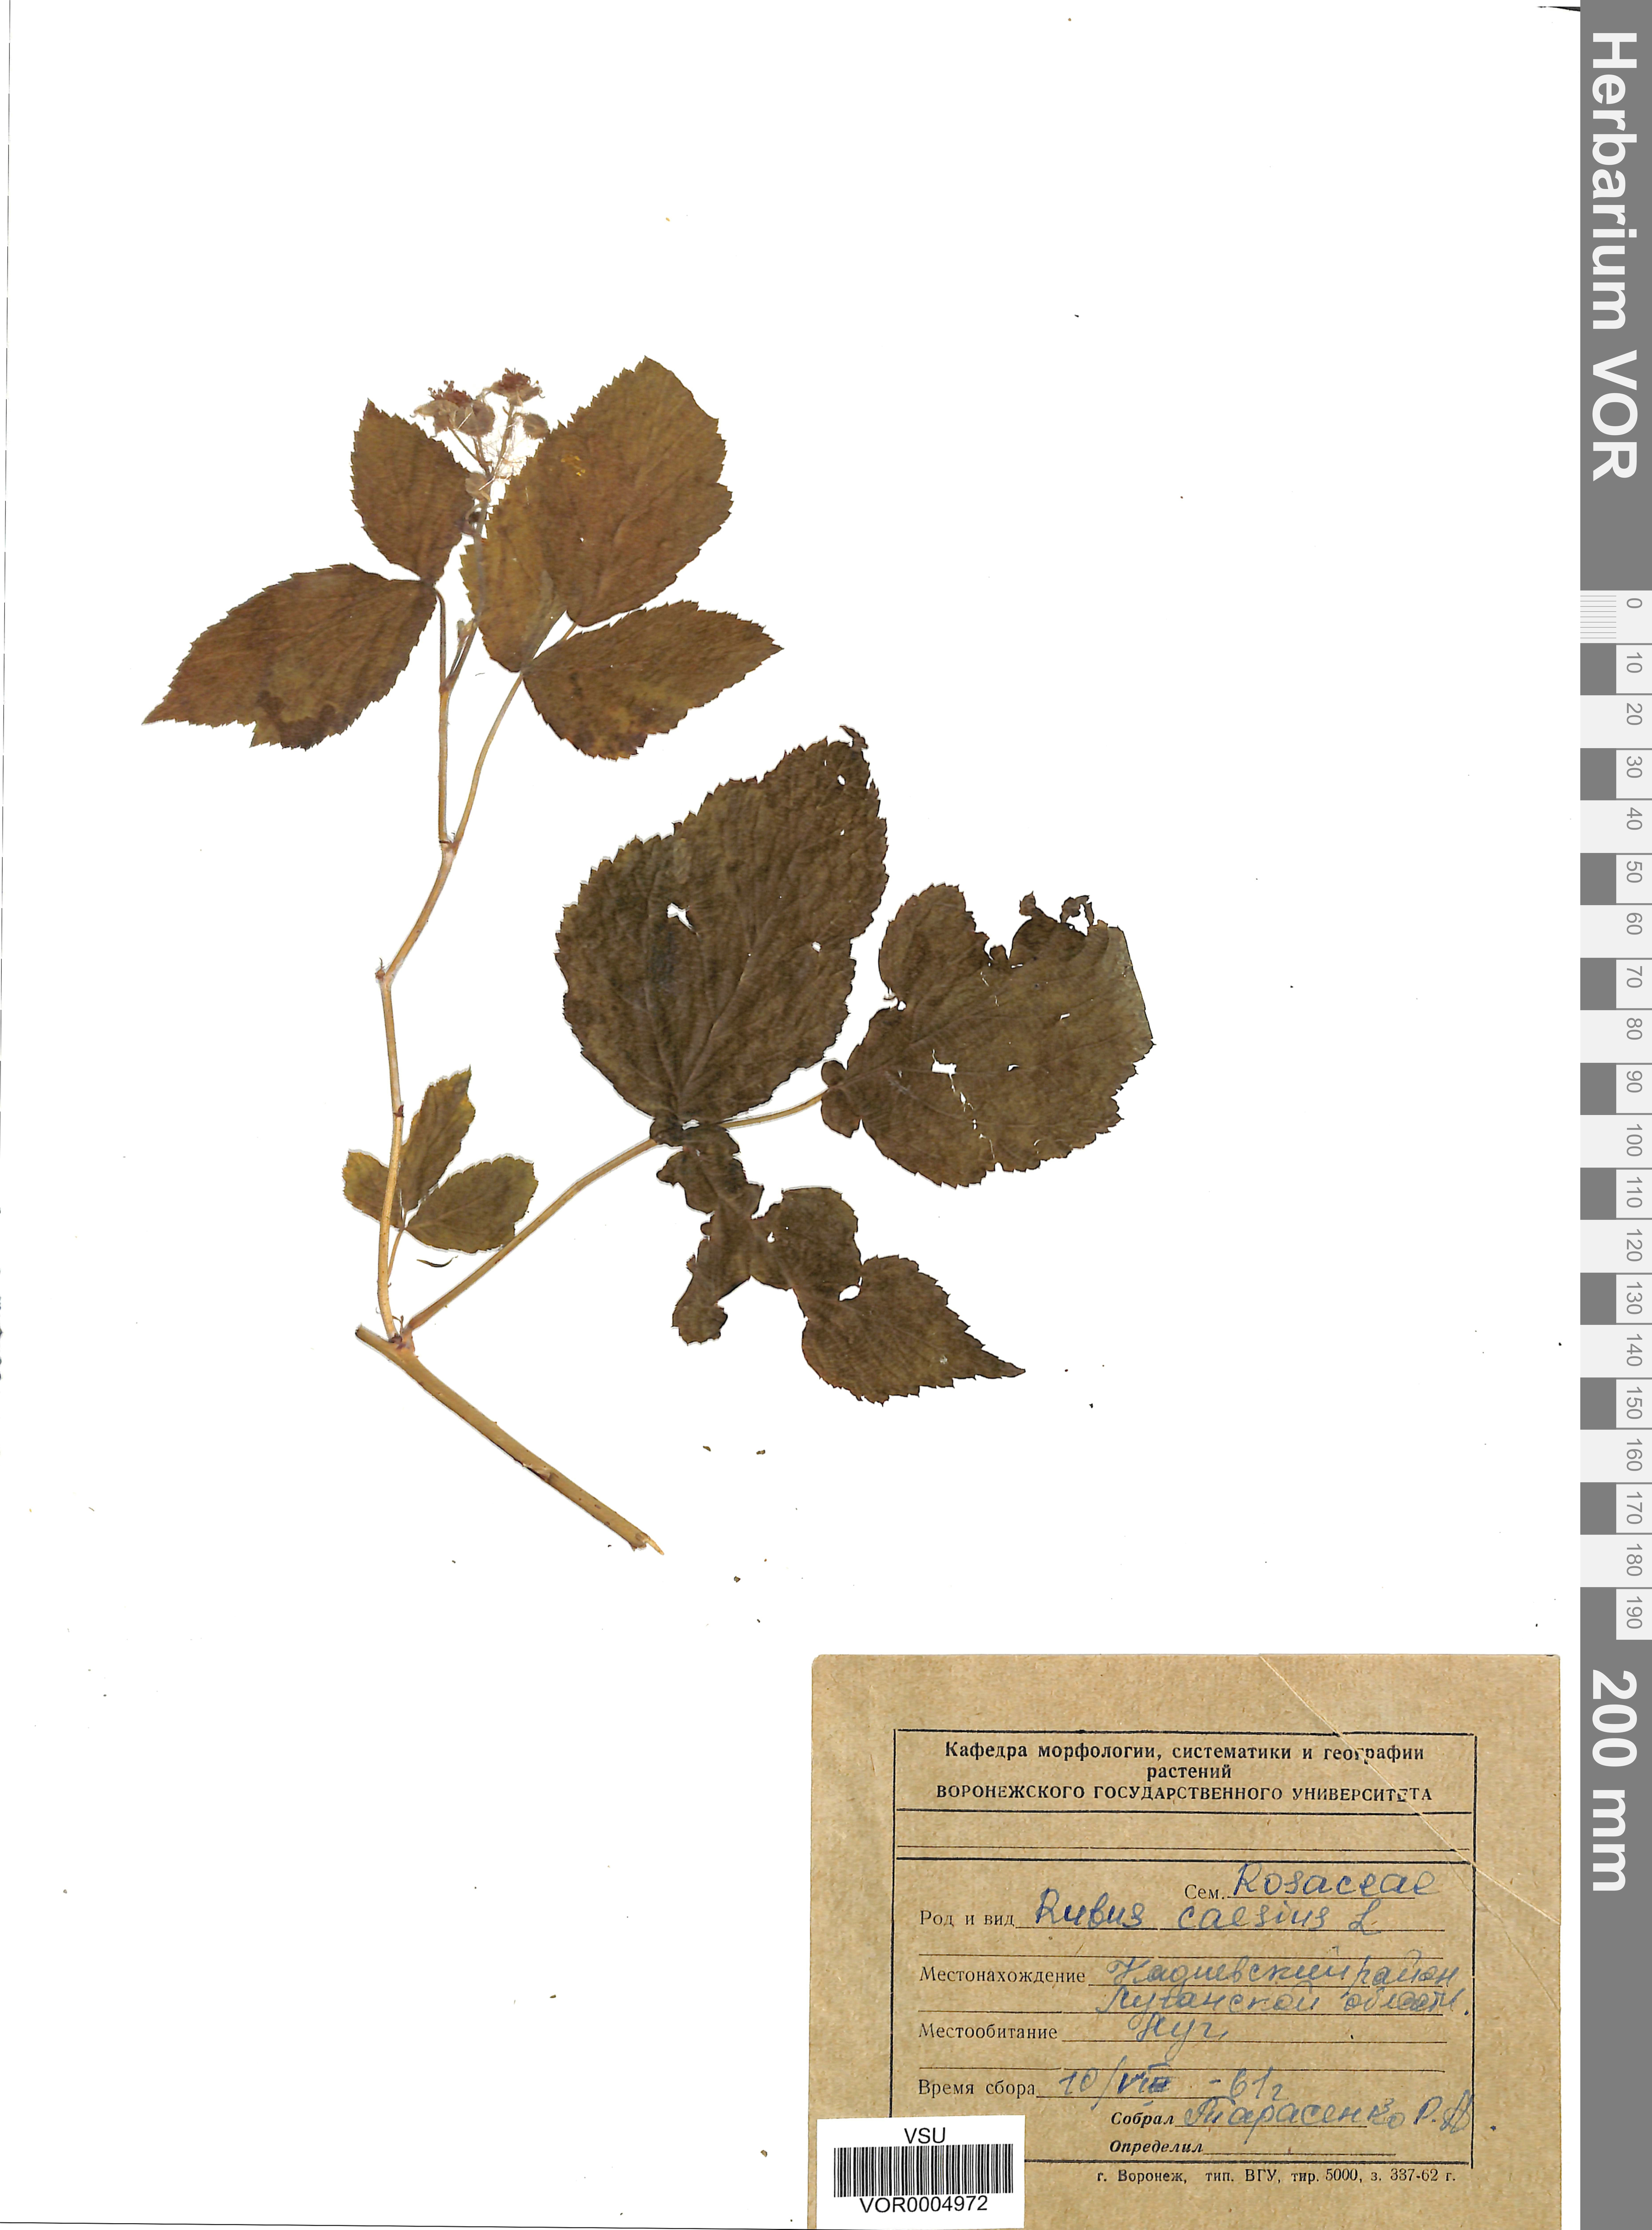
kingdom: Plantae
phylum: Tracheophyta
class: Magnoliopsida
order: Rosales
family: Rosaceae
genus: Rubus
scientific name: Rubus caesius
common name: Dewberry
